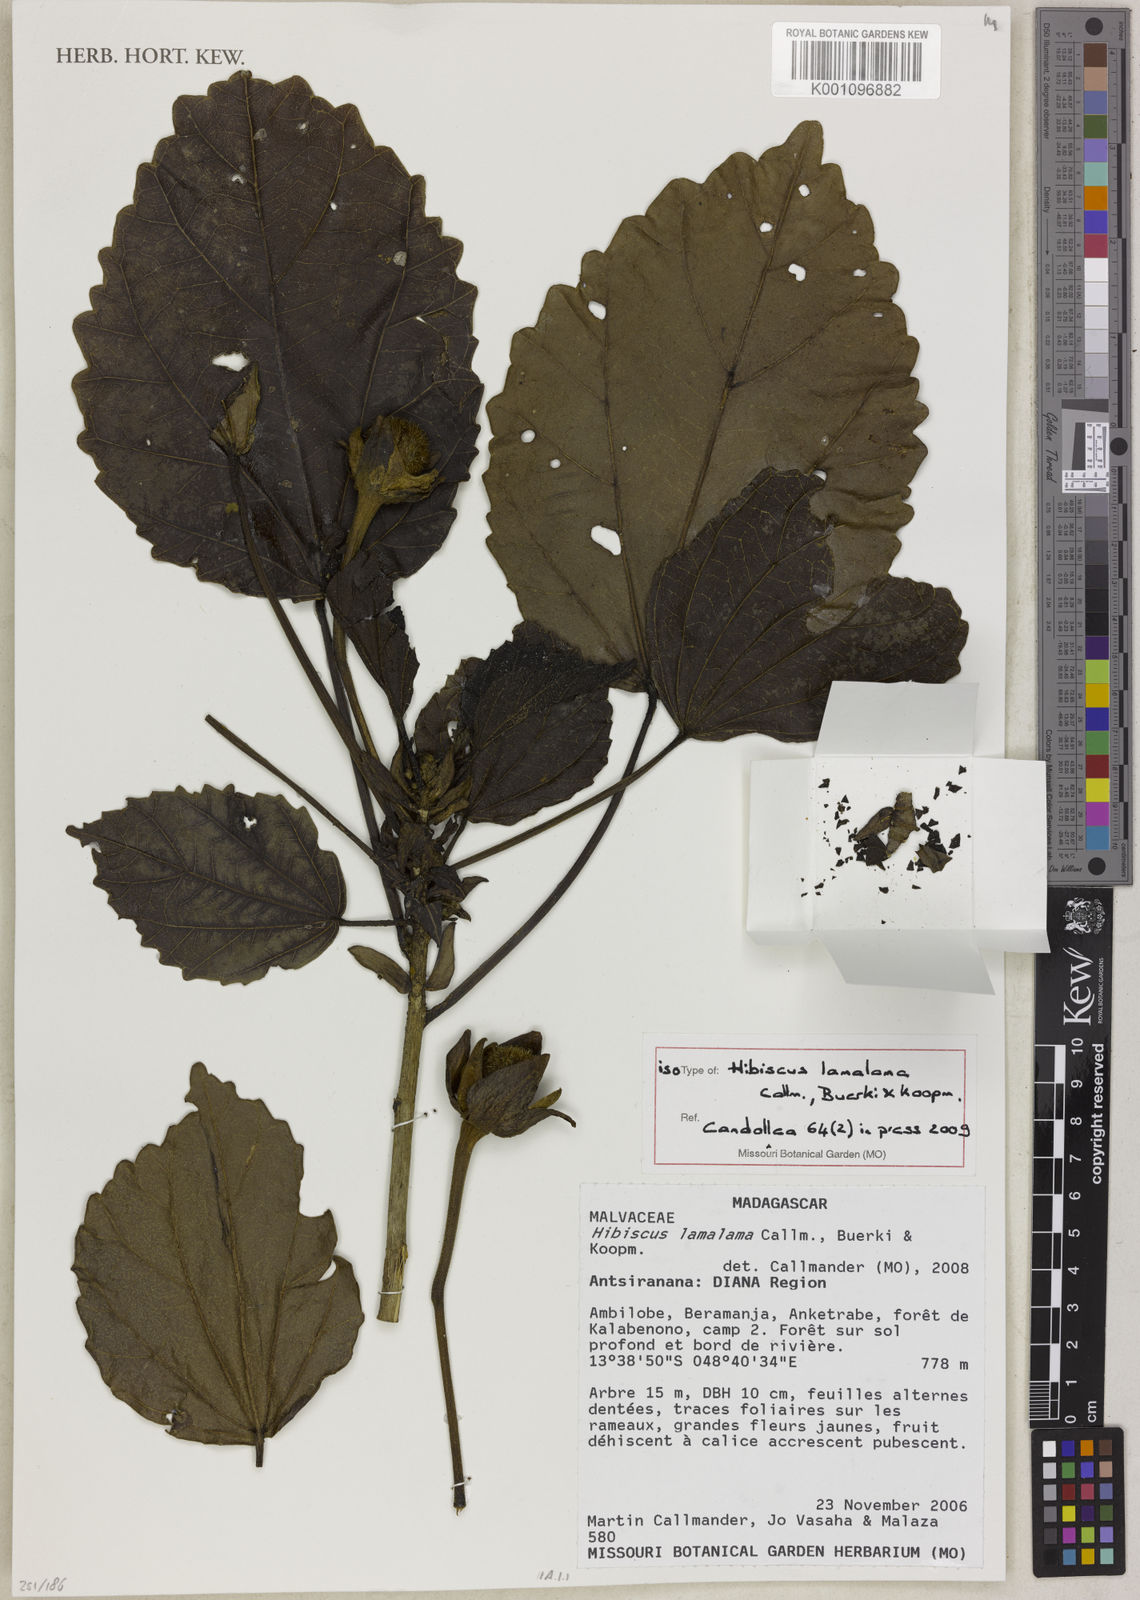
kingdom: Plantae
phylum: Tracheophyta
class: Magnoliopsida
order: Malvales
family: Malvaceae
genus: Hibiscus
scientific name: Hibiscus lamalama
